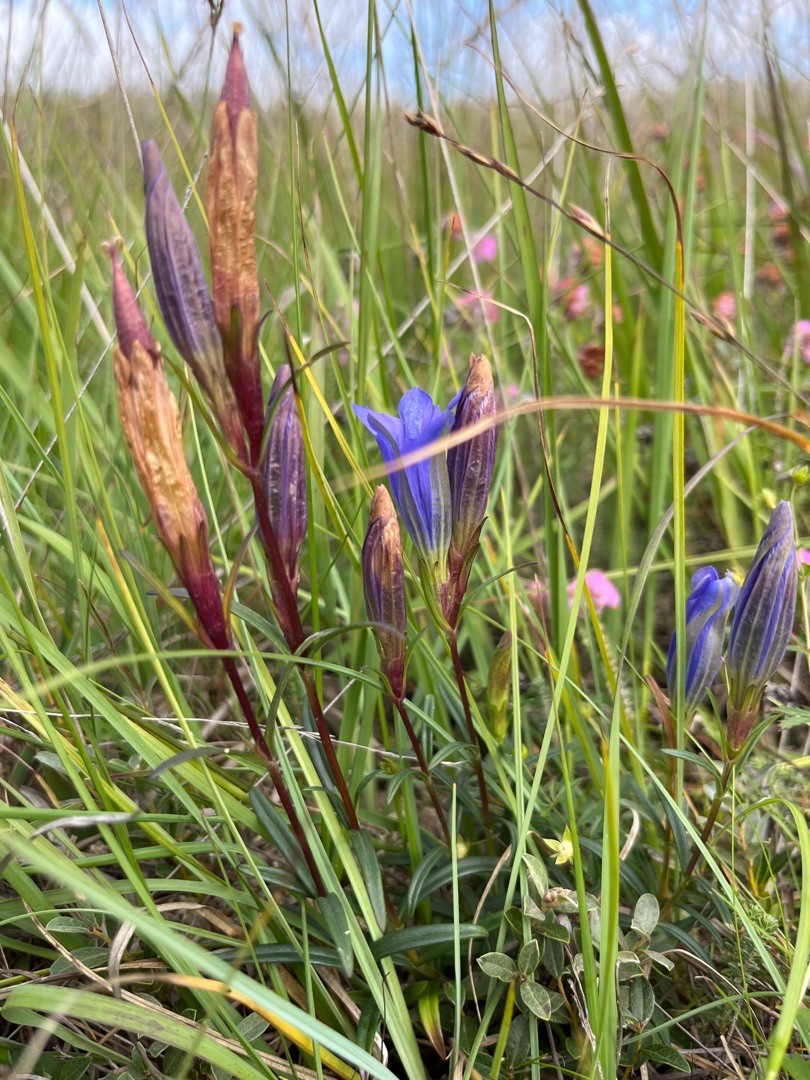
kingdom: Plantae
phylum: Tracheophyta
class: Magnoliopsida
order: Gentianales
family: Gentianaceae
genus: Gentiana
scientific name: Gentiana pneumonanthe
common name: Klokke-ensian
